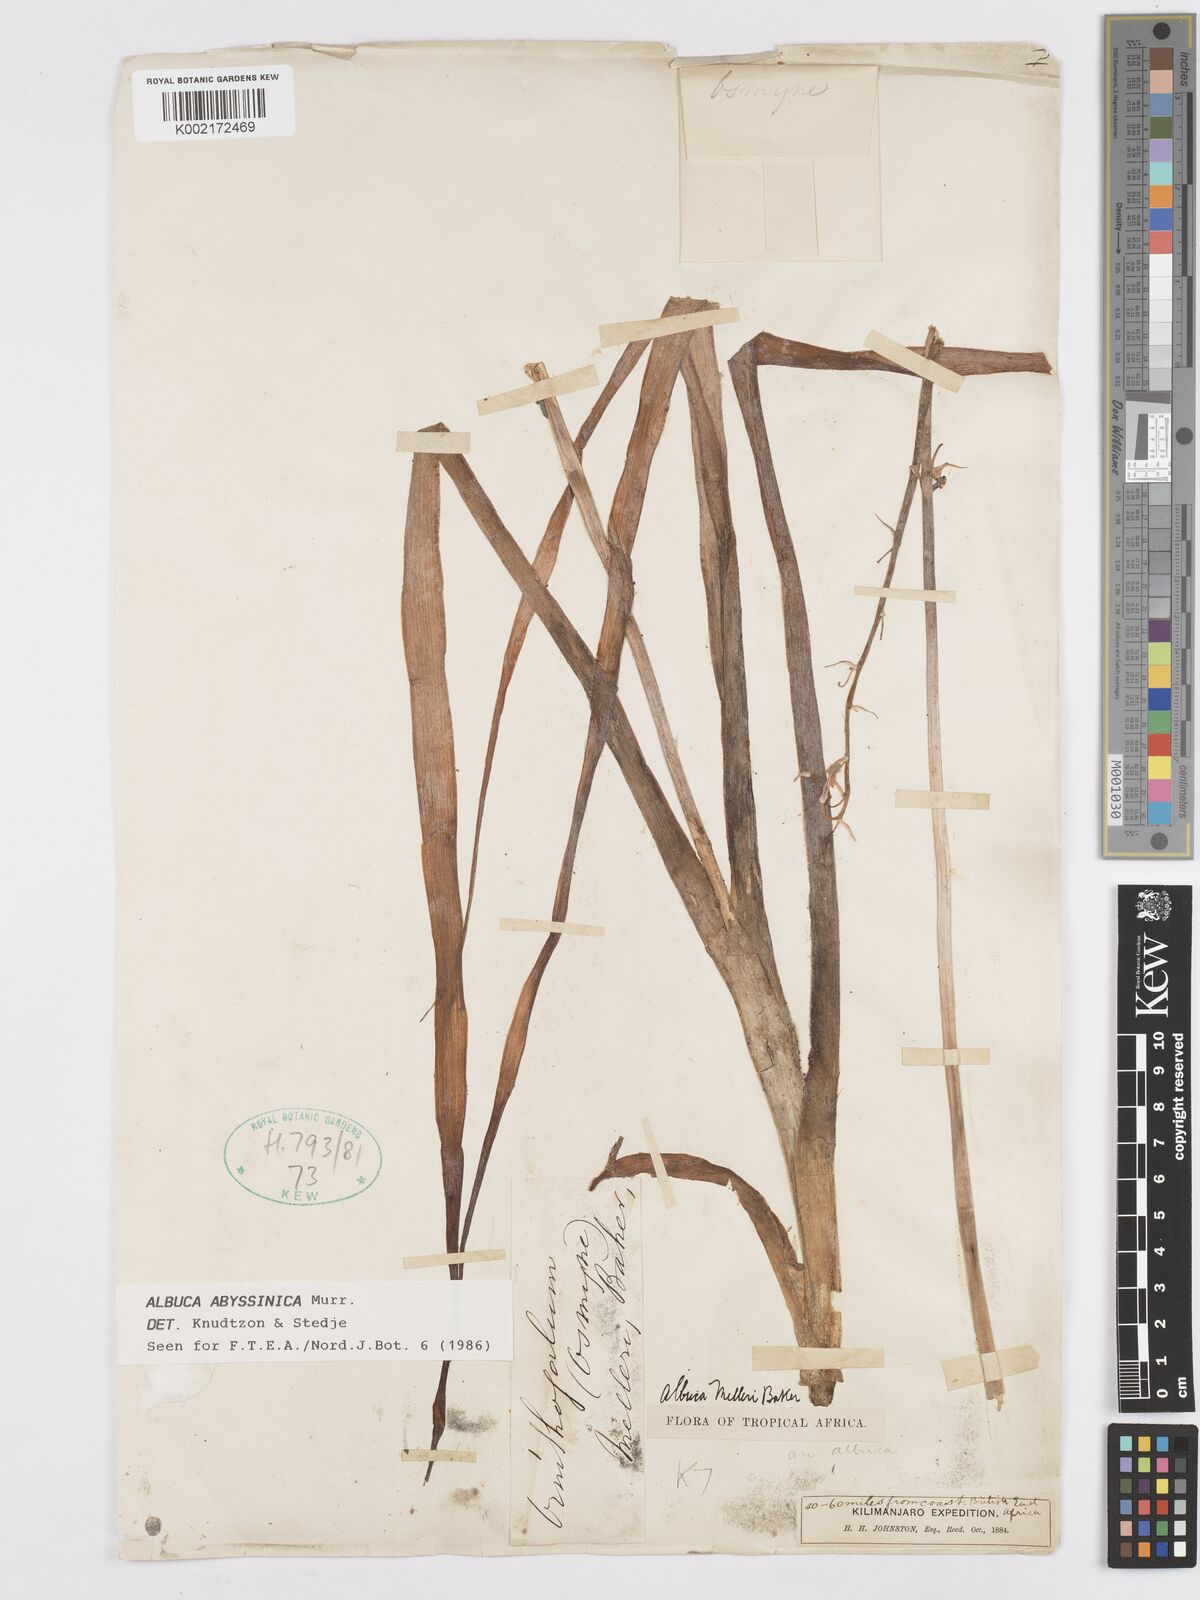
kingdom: Plantae
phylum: Tracheophyta
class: Liliopsida
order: Asparagales
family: Asparagaceae
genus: Albuca
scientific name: Albuca abyssinica
